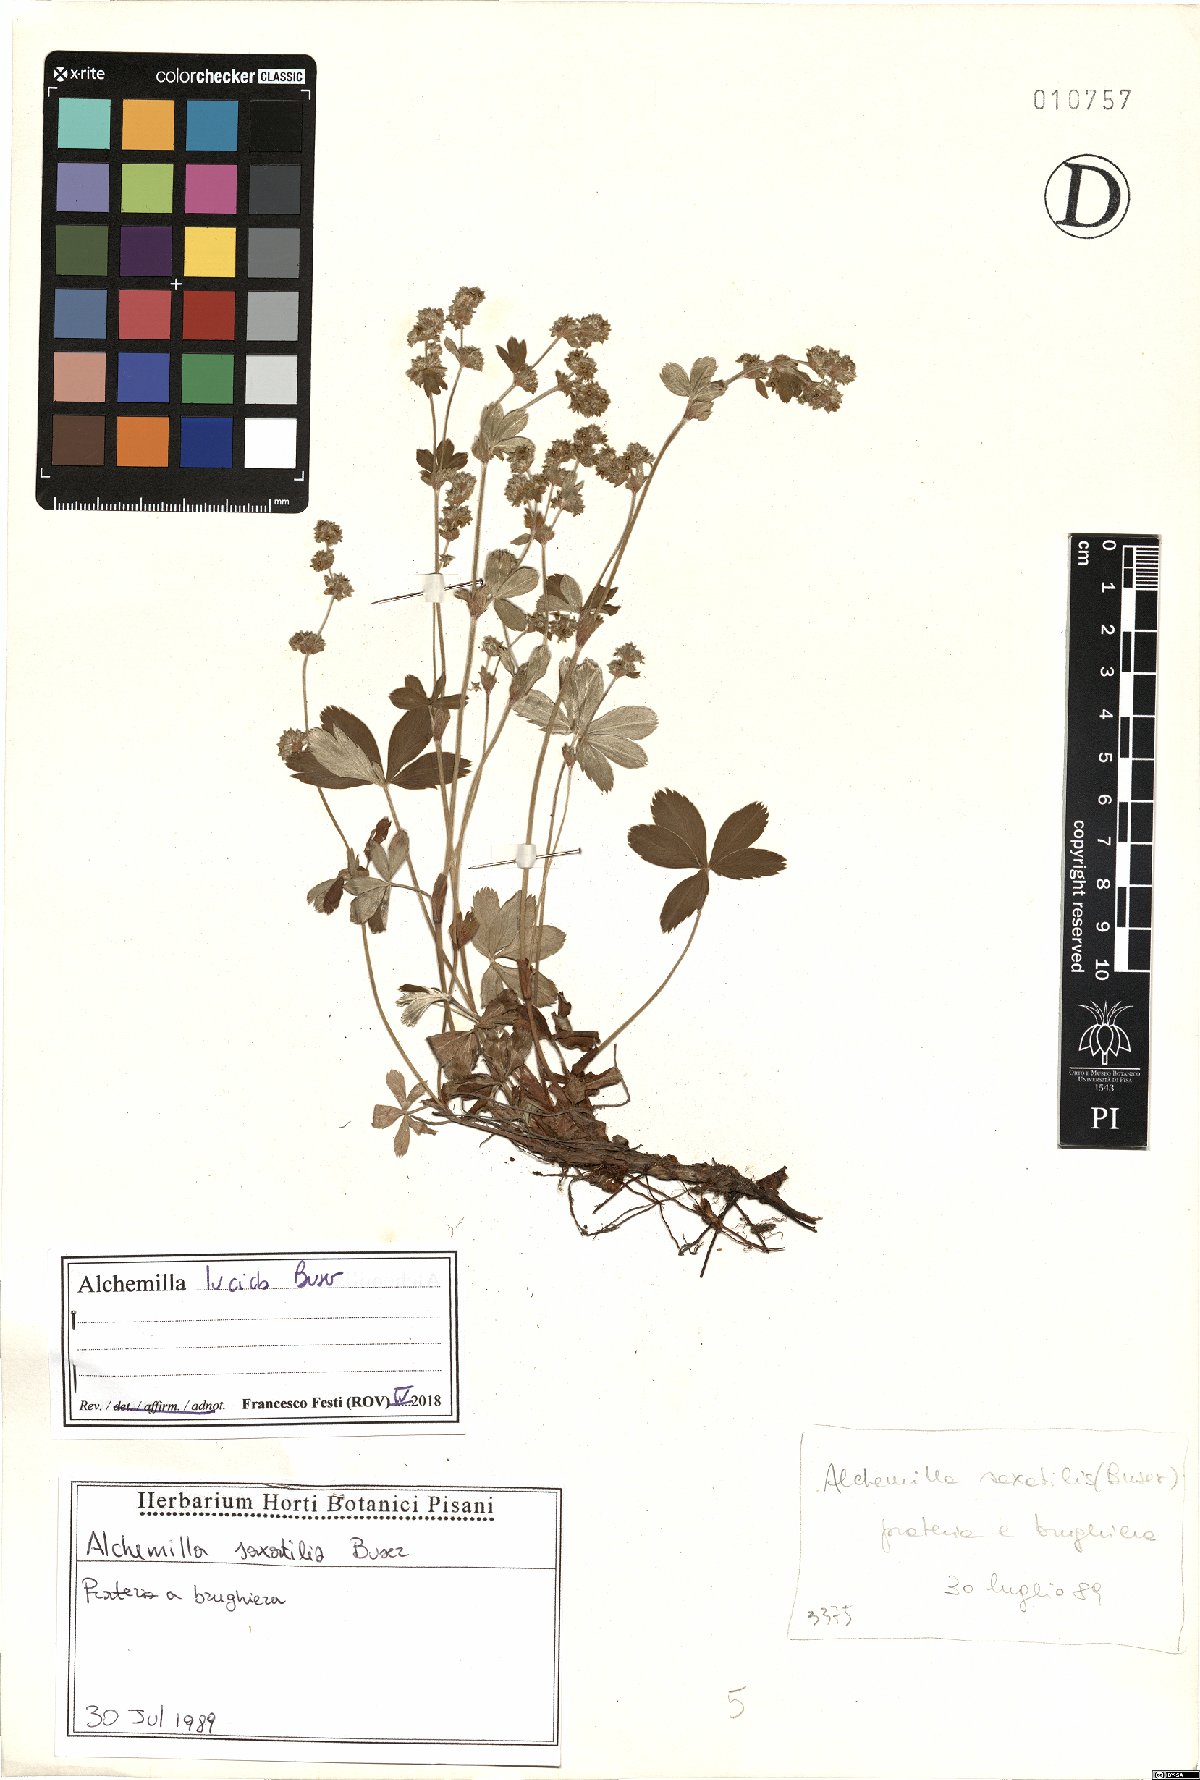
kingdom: Plantae
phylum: Tracheophyta
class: Magnoliopsida
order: Rosales
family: Rosaceae
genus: Alchemilla
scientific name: Alchemilla lucida
